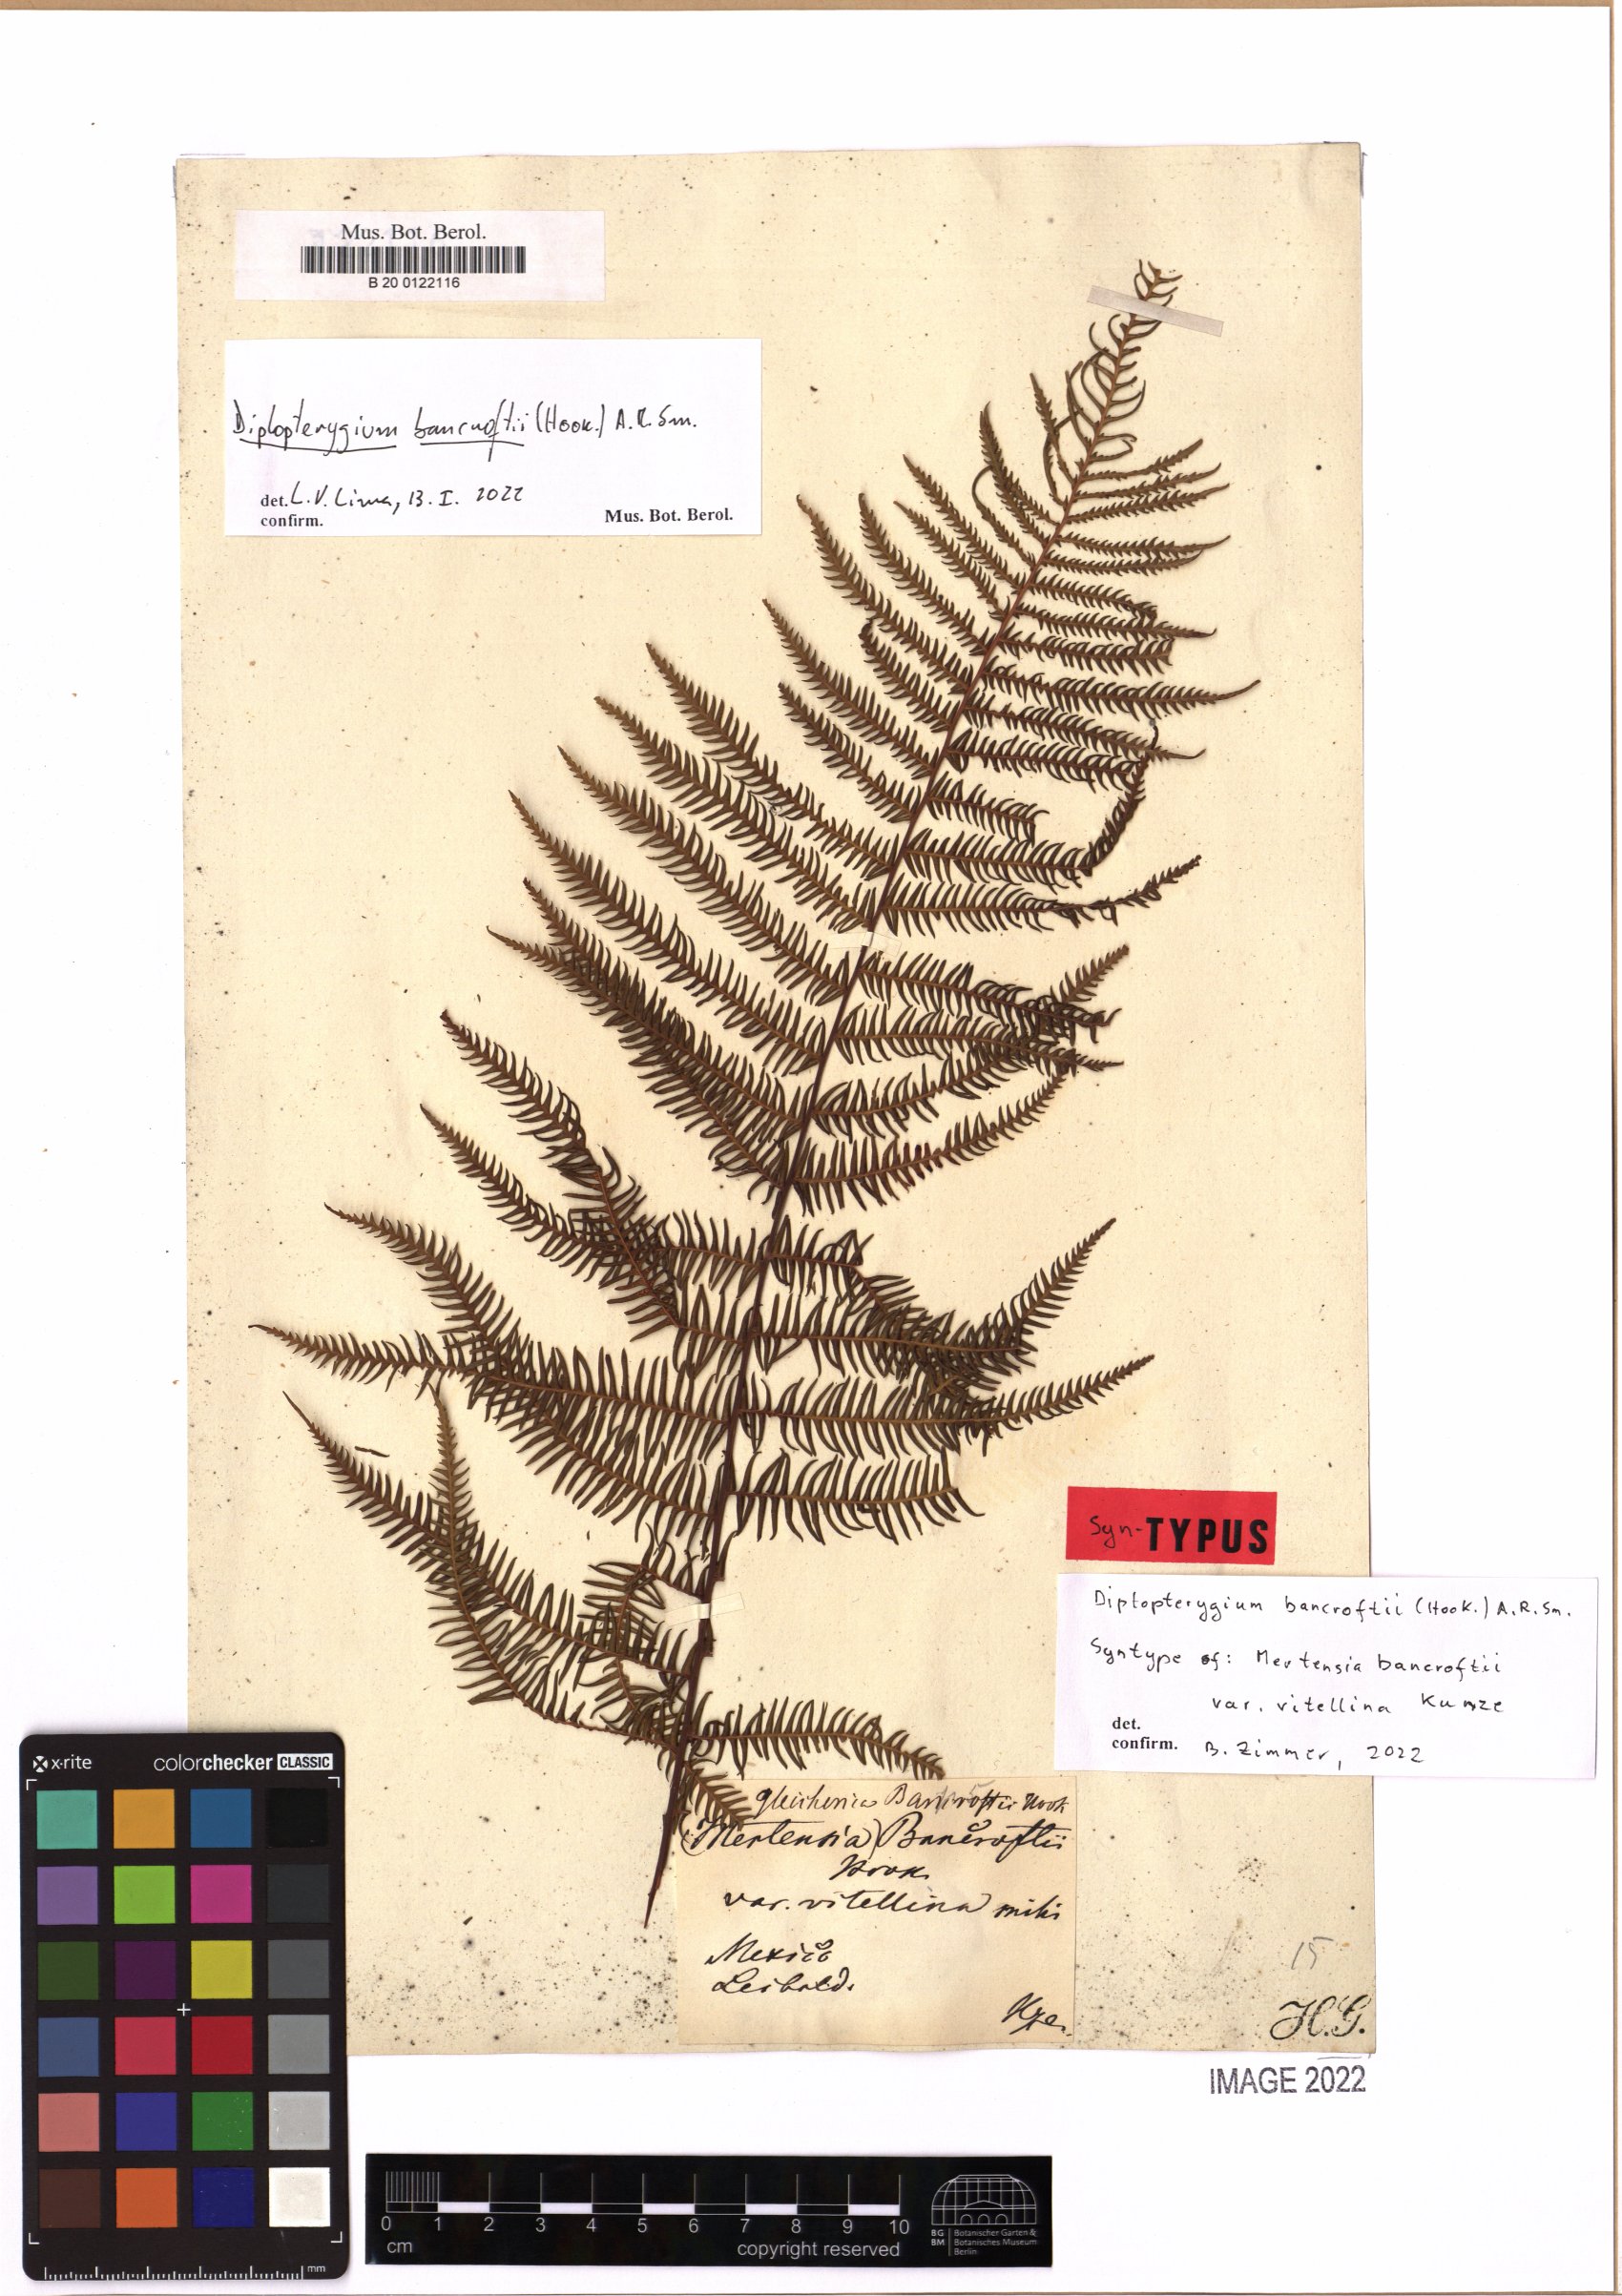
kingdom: Plantae
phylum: Tracheophyta
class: Polypodiopsida
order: Gleicheniales
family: Gleicheniaceae
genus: Diplopterygium
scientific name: Diplopterygium bancroftii
